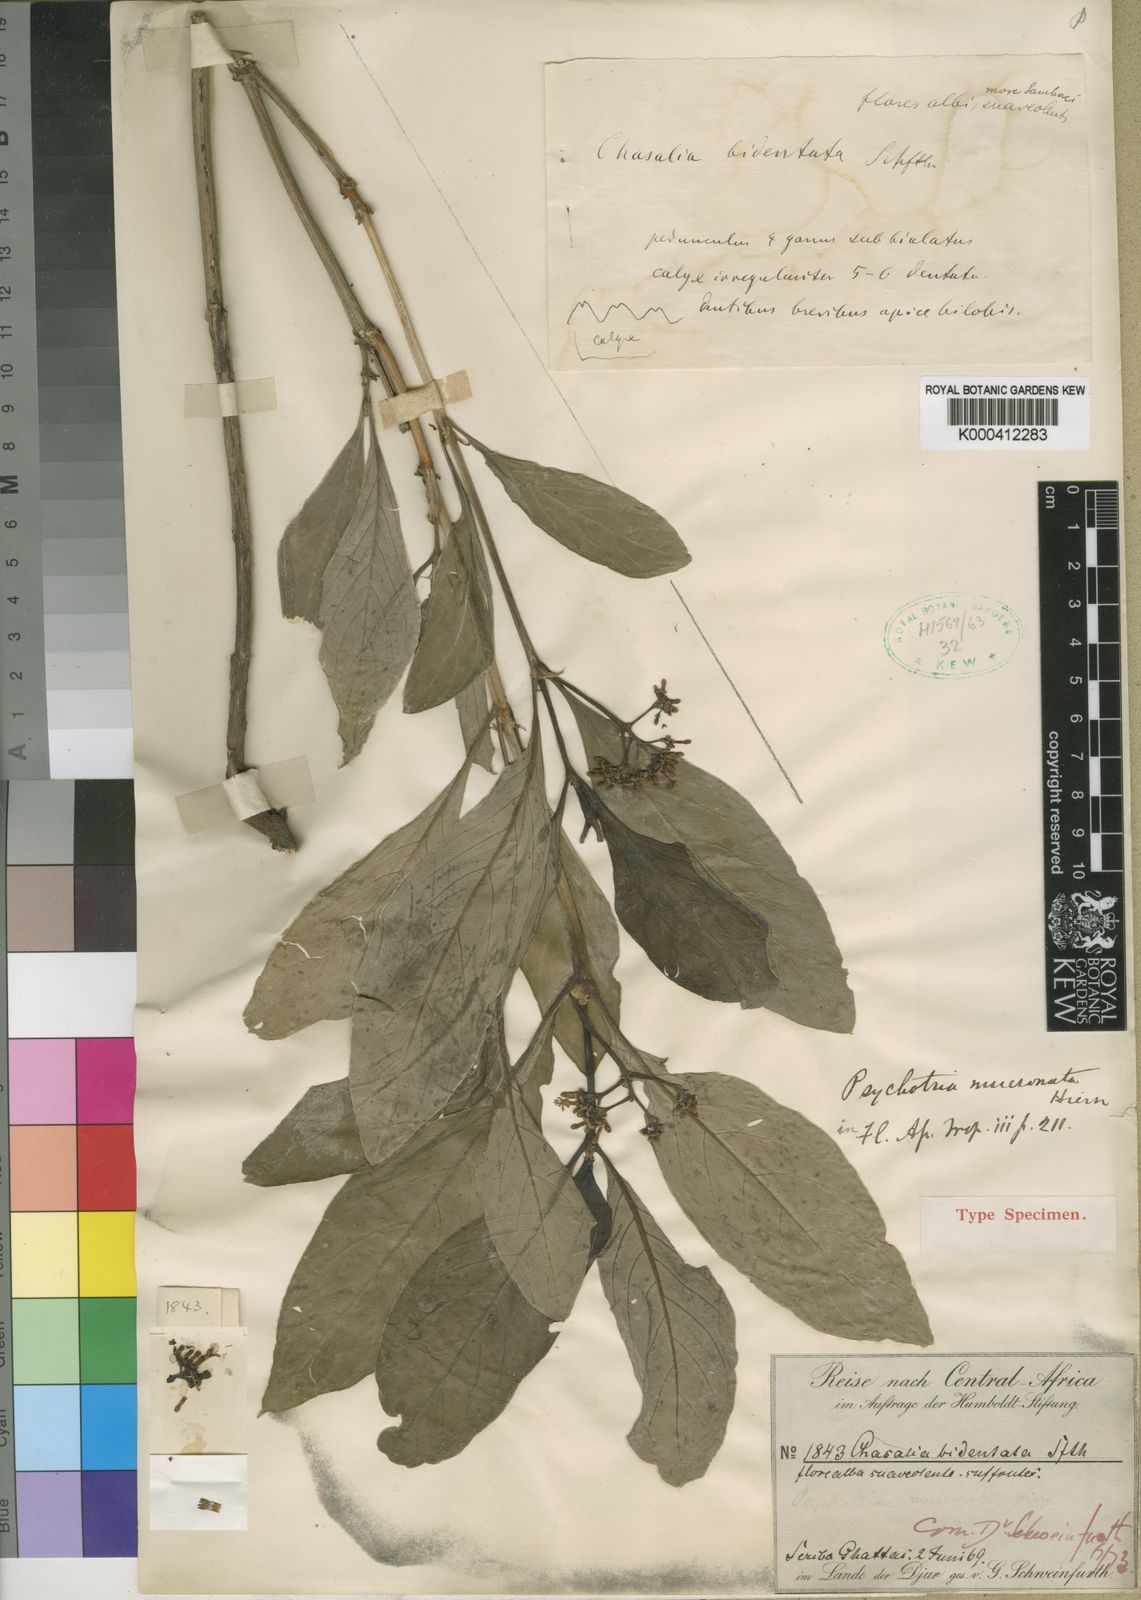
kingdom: Plantae
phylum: Tracheophyta
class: Magnoliopsida
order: Gentianales
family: Rubiaceae
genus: Psychotria
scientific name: Psychotria punctata
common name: Dotted wild coffee
